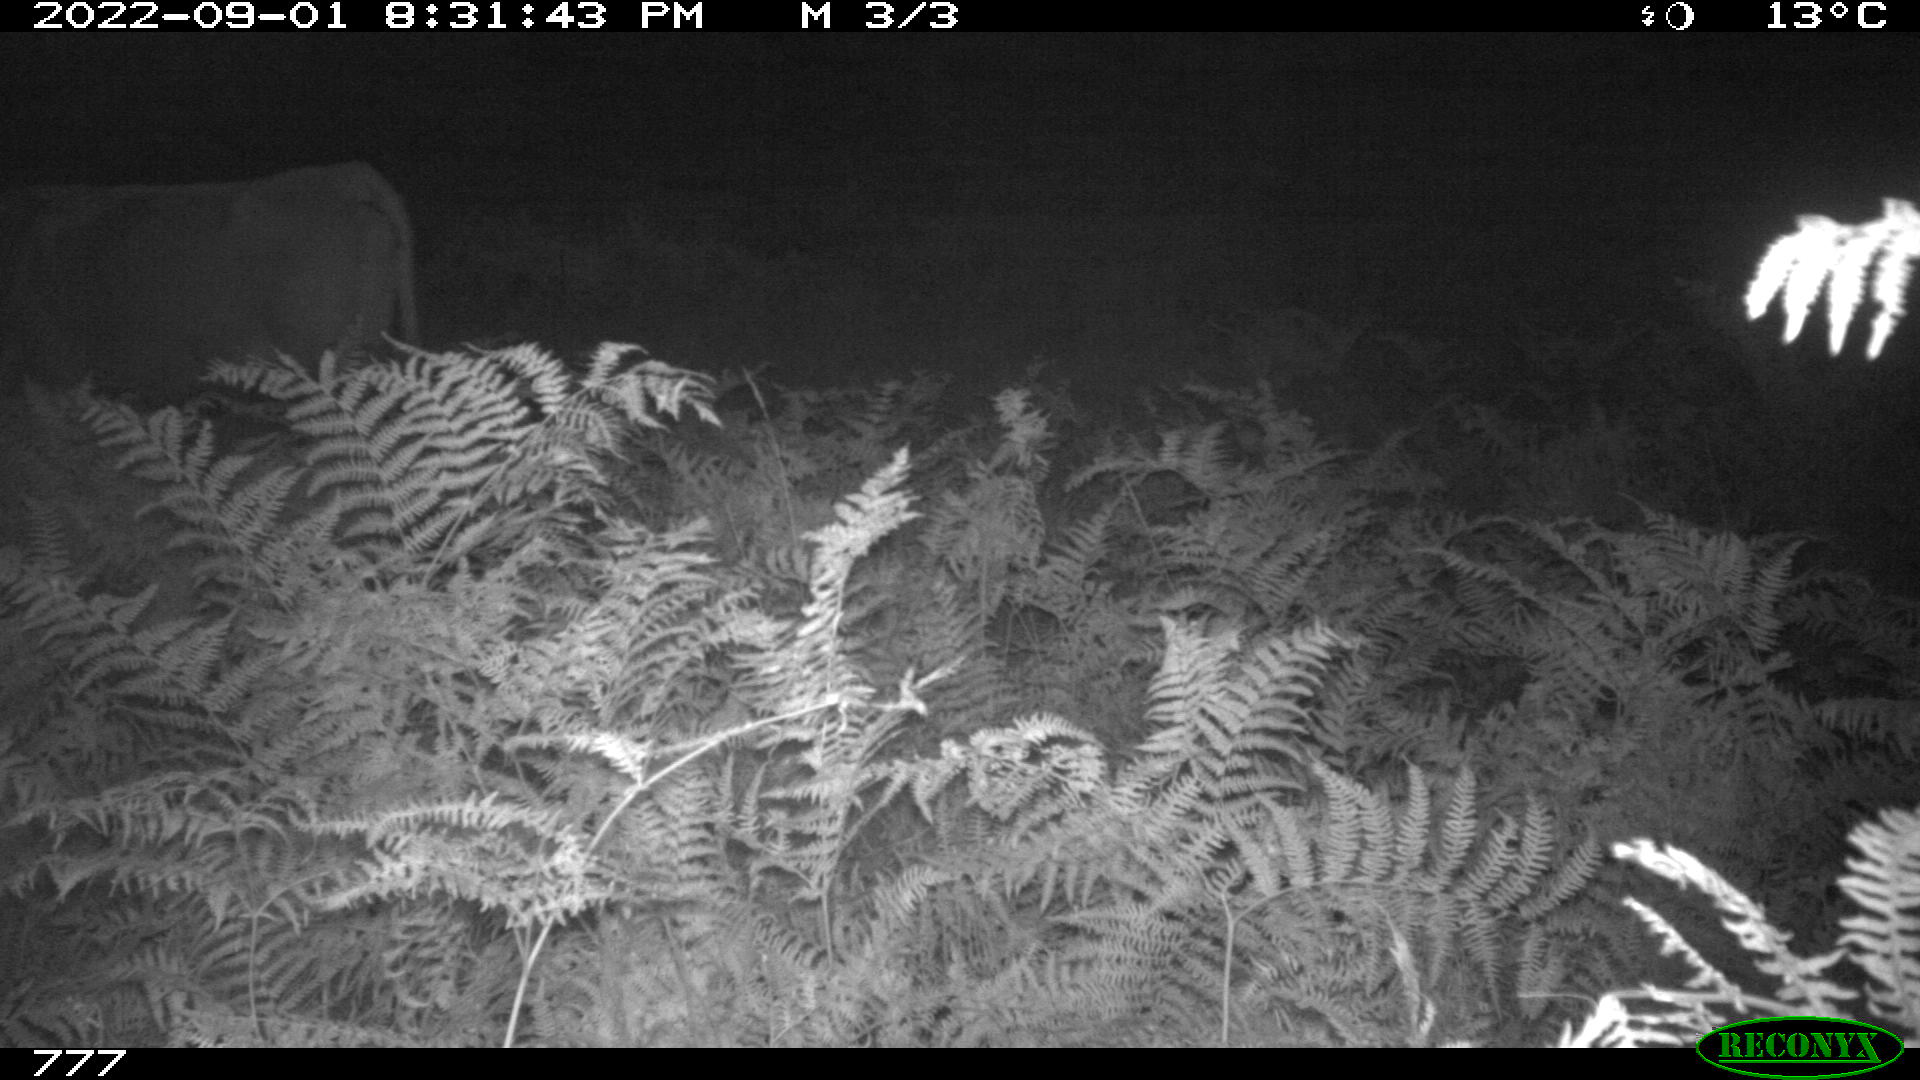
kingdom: Animalia
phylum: Chordata
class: Mammalia
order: Artiodactyla
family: Bovidae
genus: Bos
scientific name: Bos taurus
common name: Domesticated cattle
